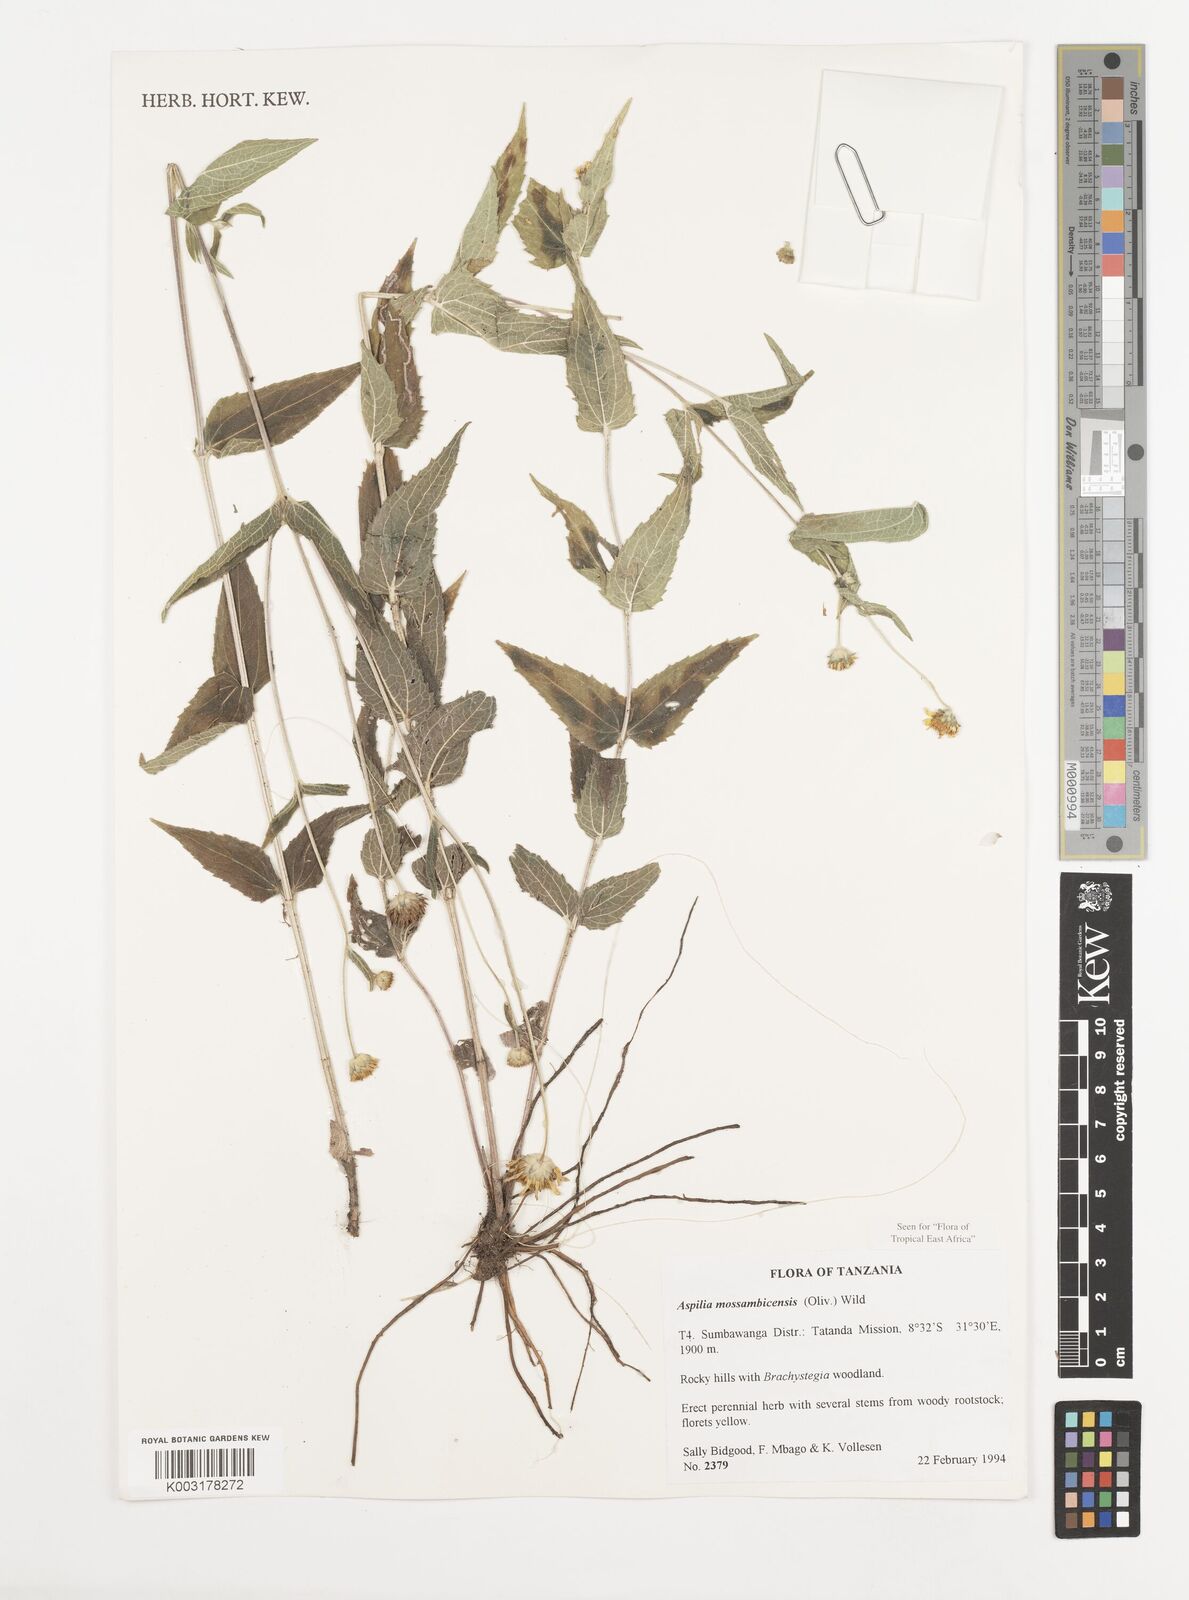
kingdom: Plantae
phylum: Tracheophyta
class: Magnoliopsida
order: Asterales
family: Asteraceae
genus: Aspilia
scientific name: Aspilia mossambicensis
